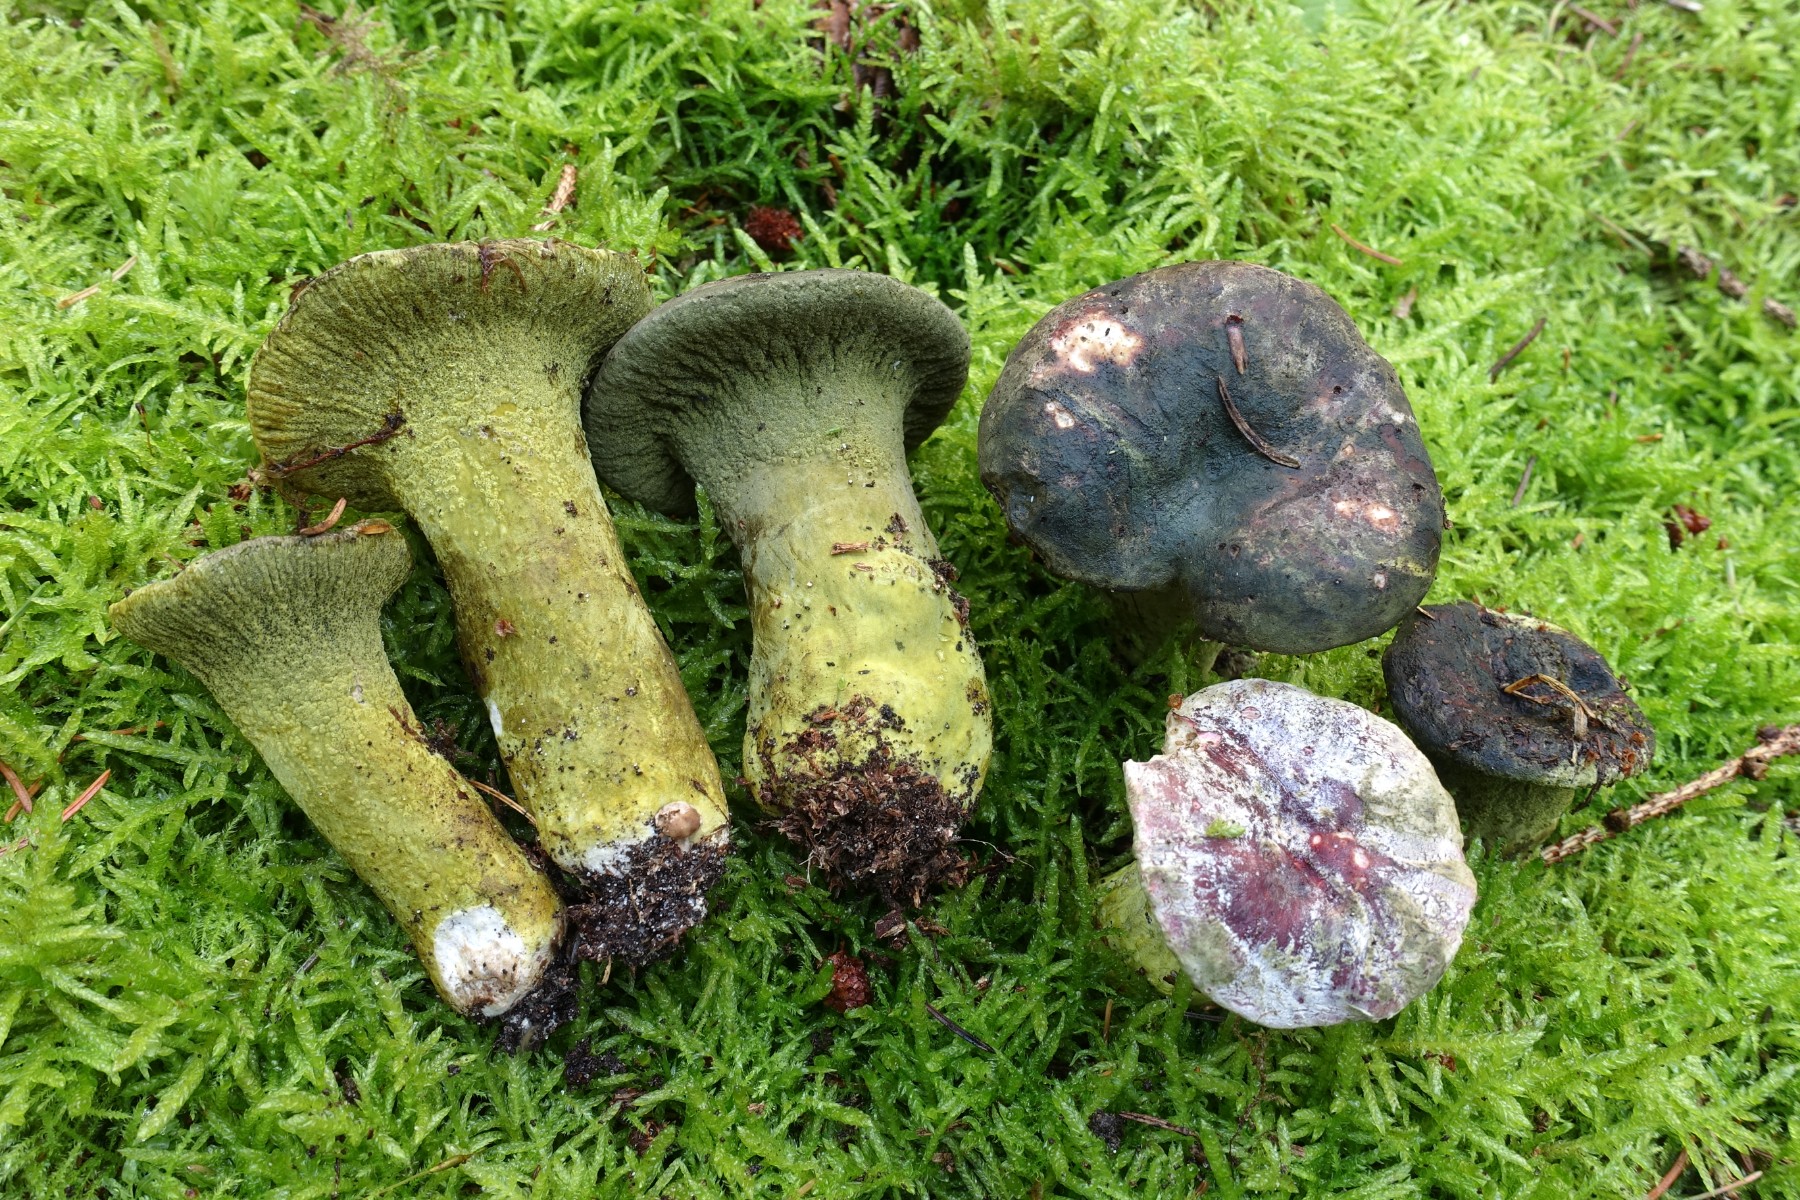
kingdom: Fungi
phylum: Ascomycota
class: Sordariomycetes
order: Hypocreales
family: Hypocreaceae
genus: Hypomyces
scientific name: Hypomyces luteovirens
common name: gulgrøn snylteskorpe
